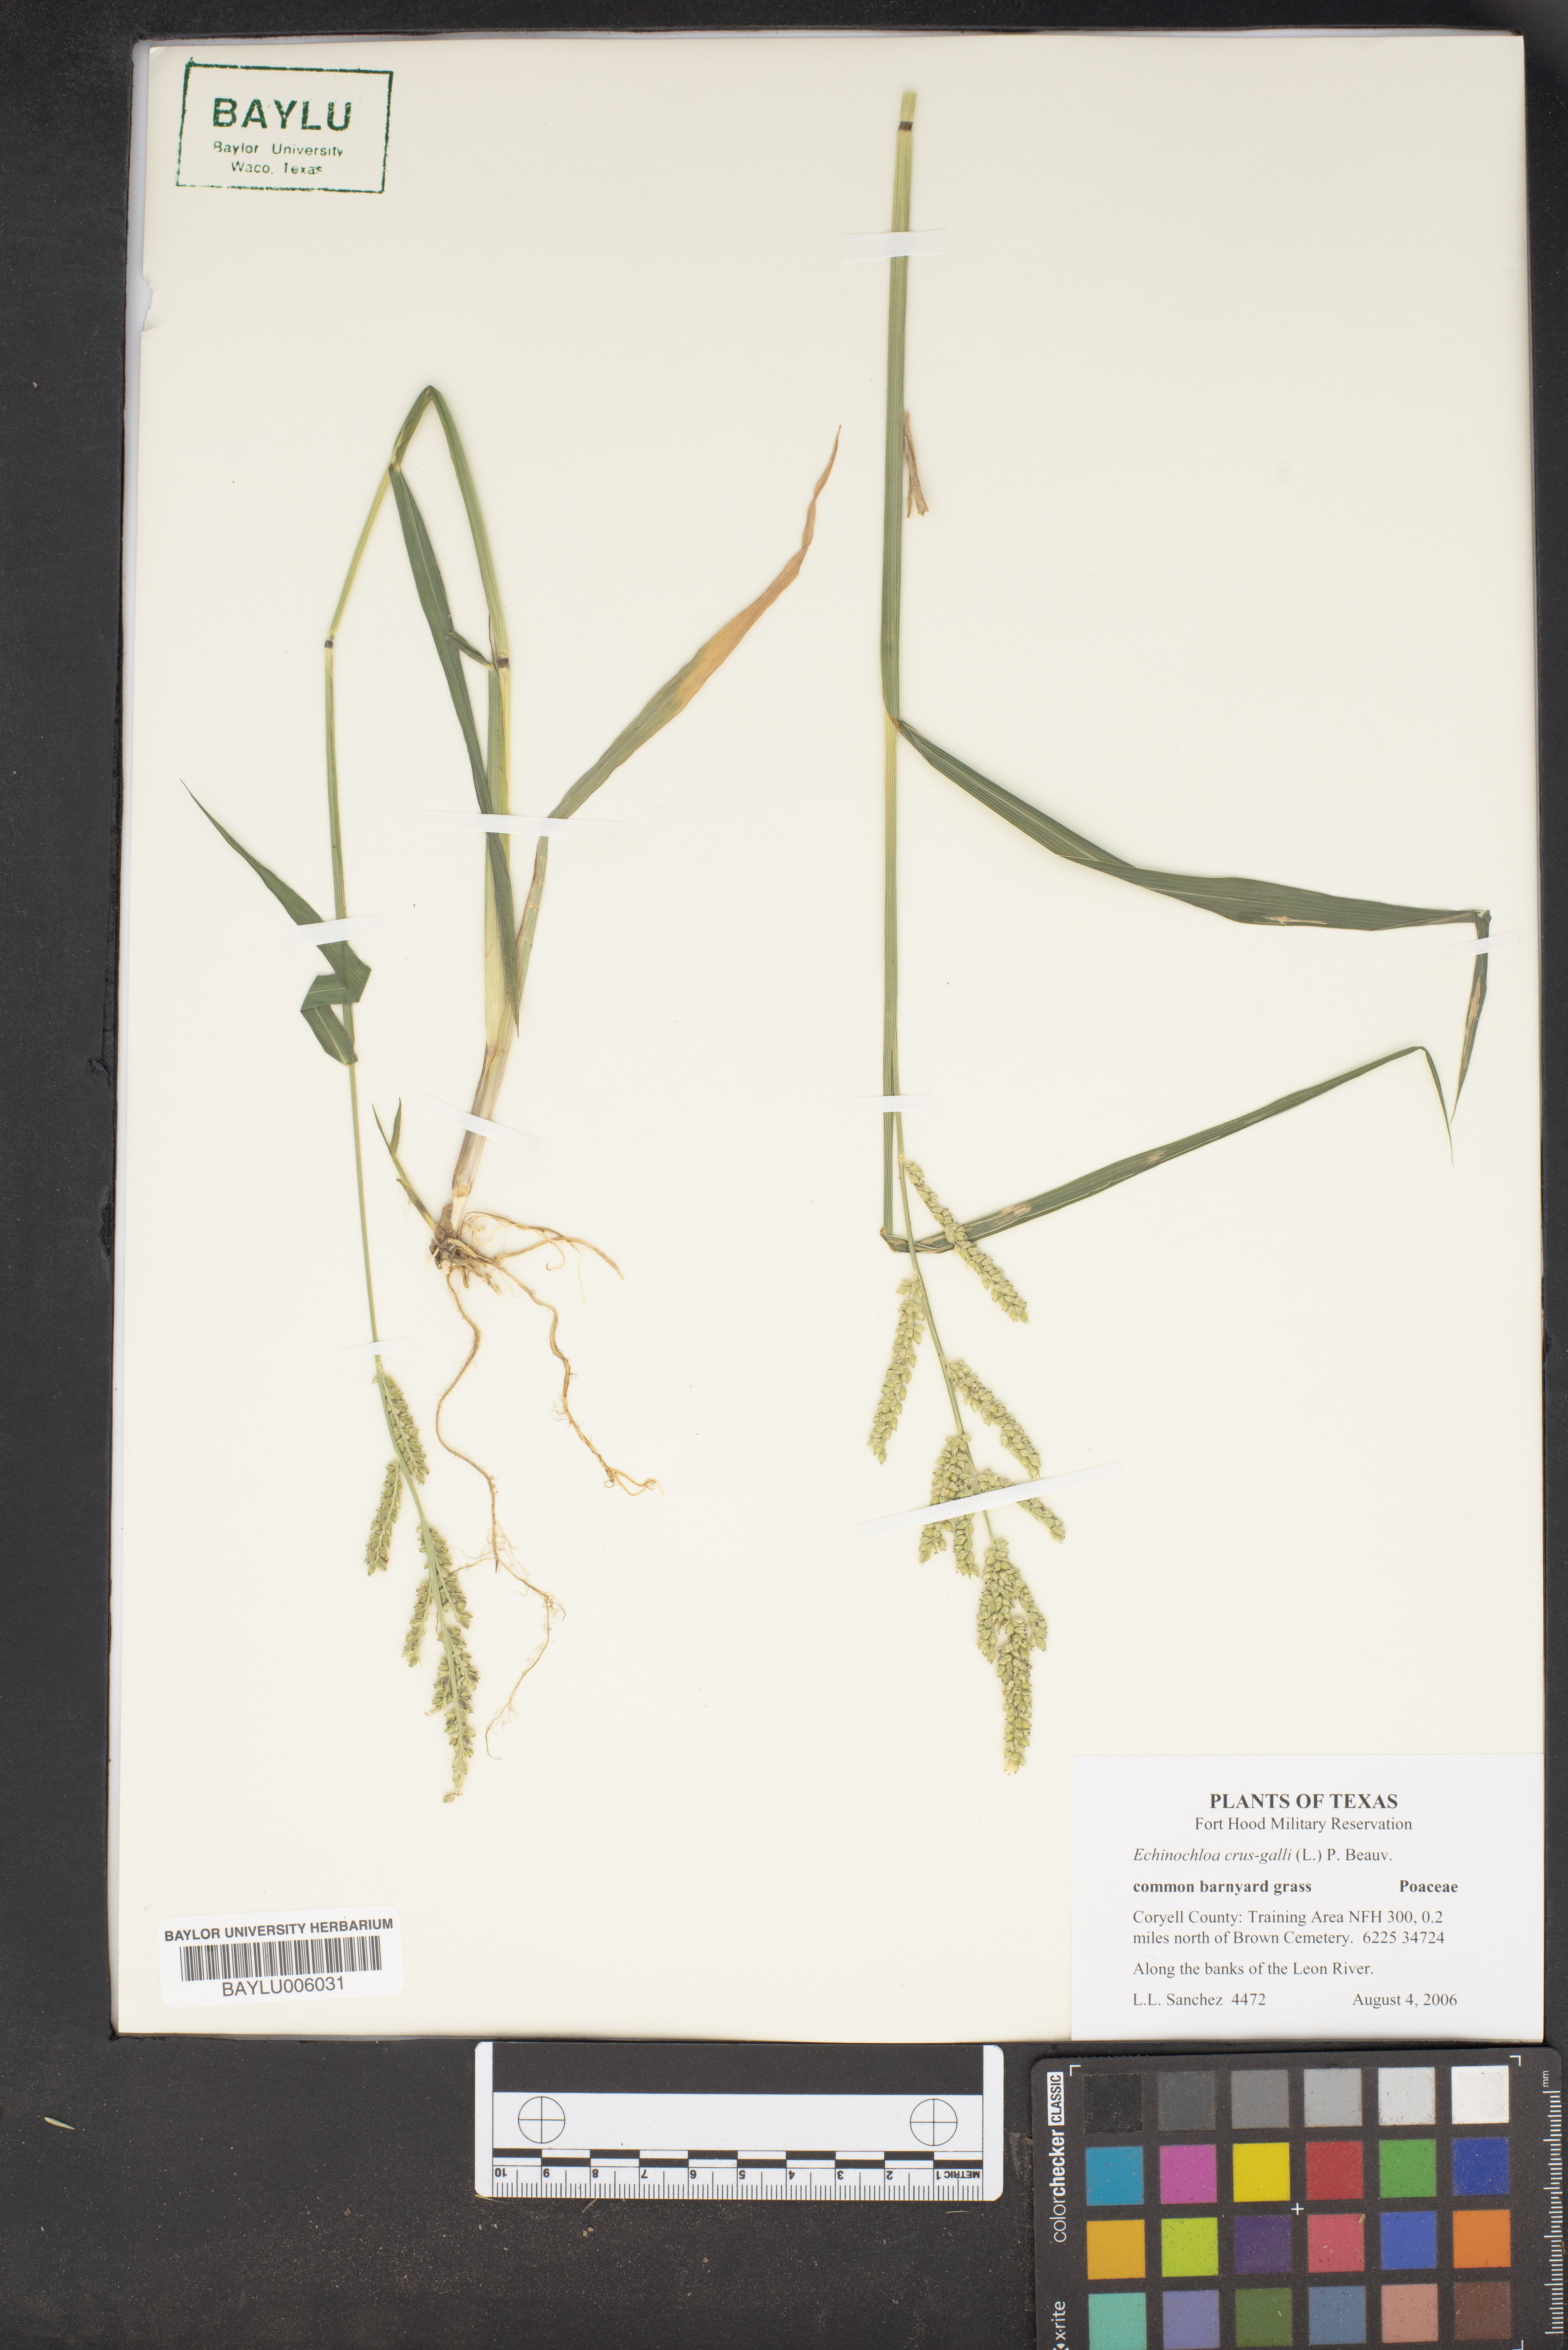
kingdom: Plantae
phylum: Tracheophyta
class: Liliopsida
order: Poales
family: Poaceae
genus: Echinochloa
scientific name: Echinochloa crus-galli
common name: Cockspur
